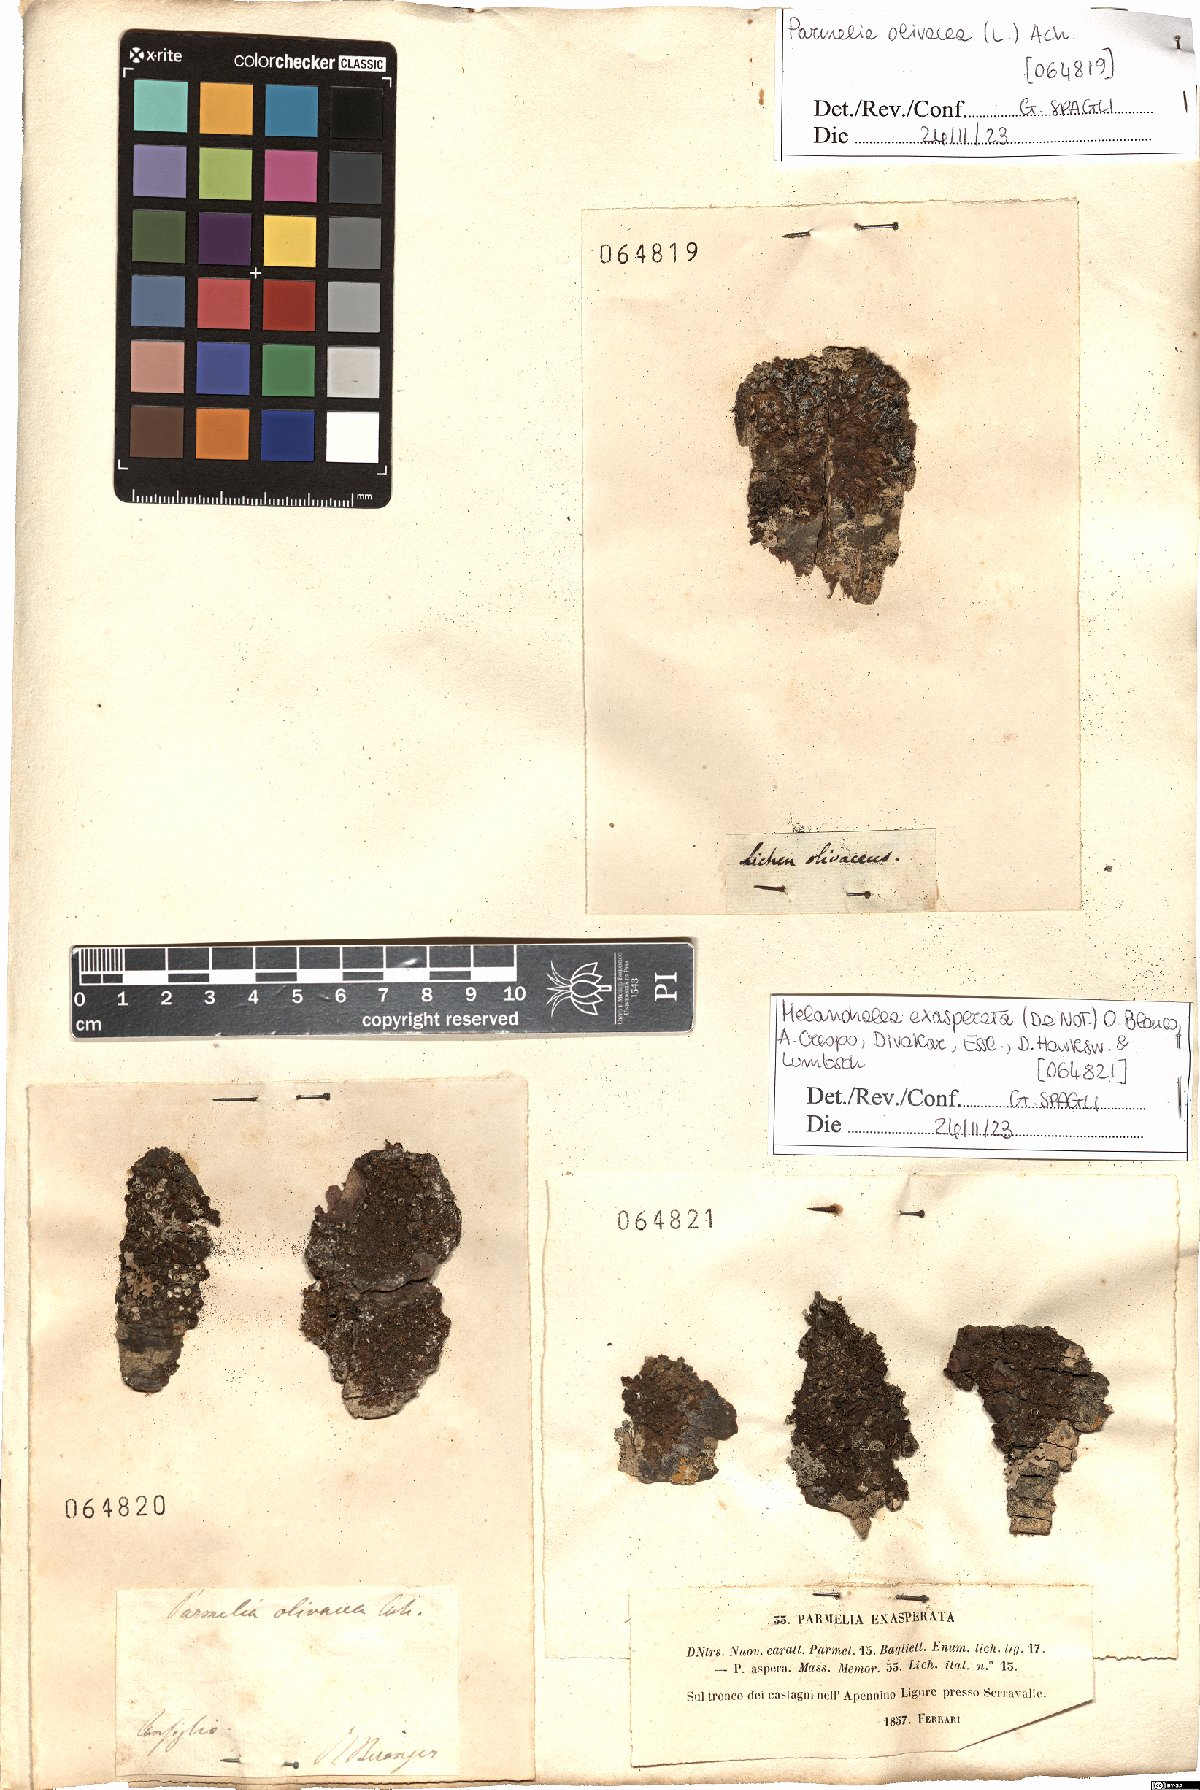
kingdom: Fungi
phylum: Ascomycota
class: Lecanoromycetes
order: Lecanorales
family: Parmeliaceae
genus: Melanohalea
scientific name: Melanohalea exasperata
